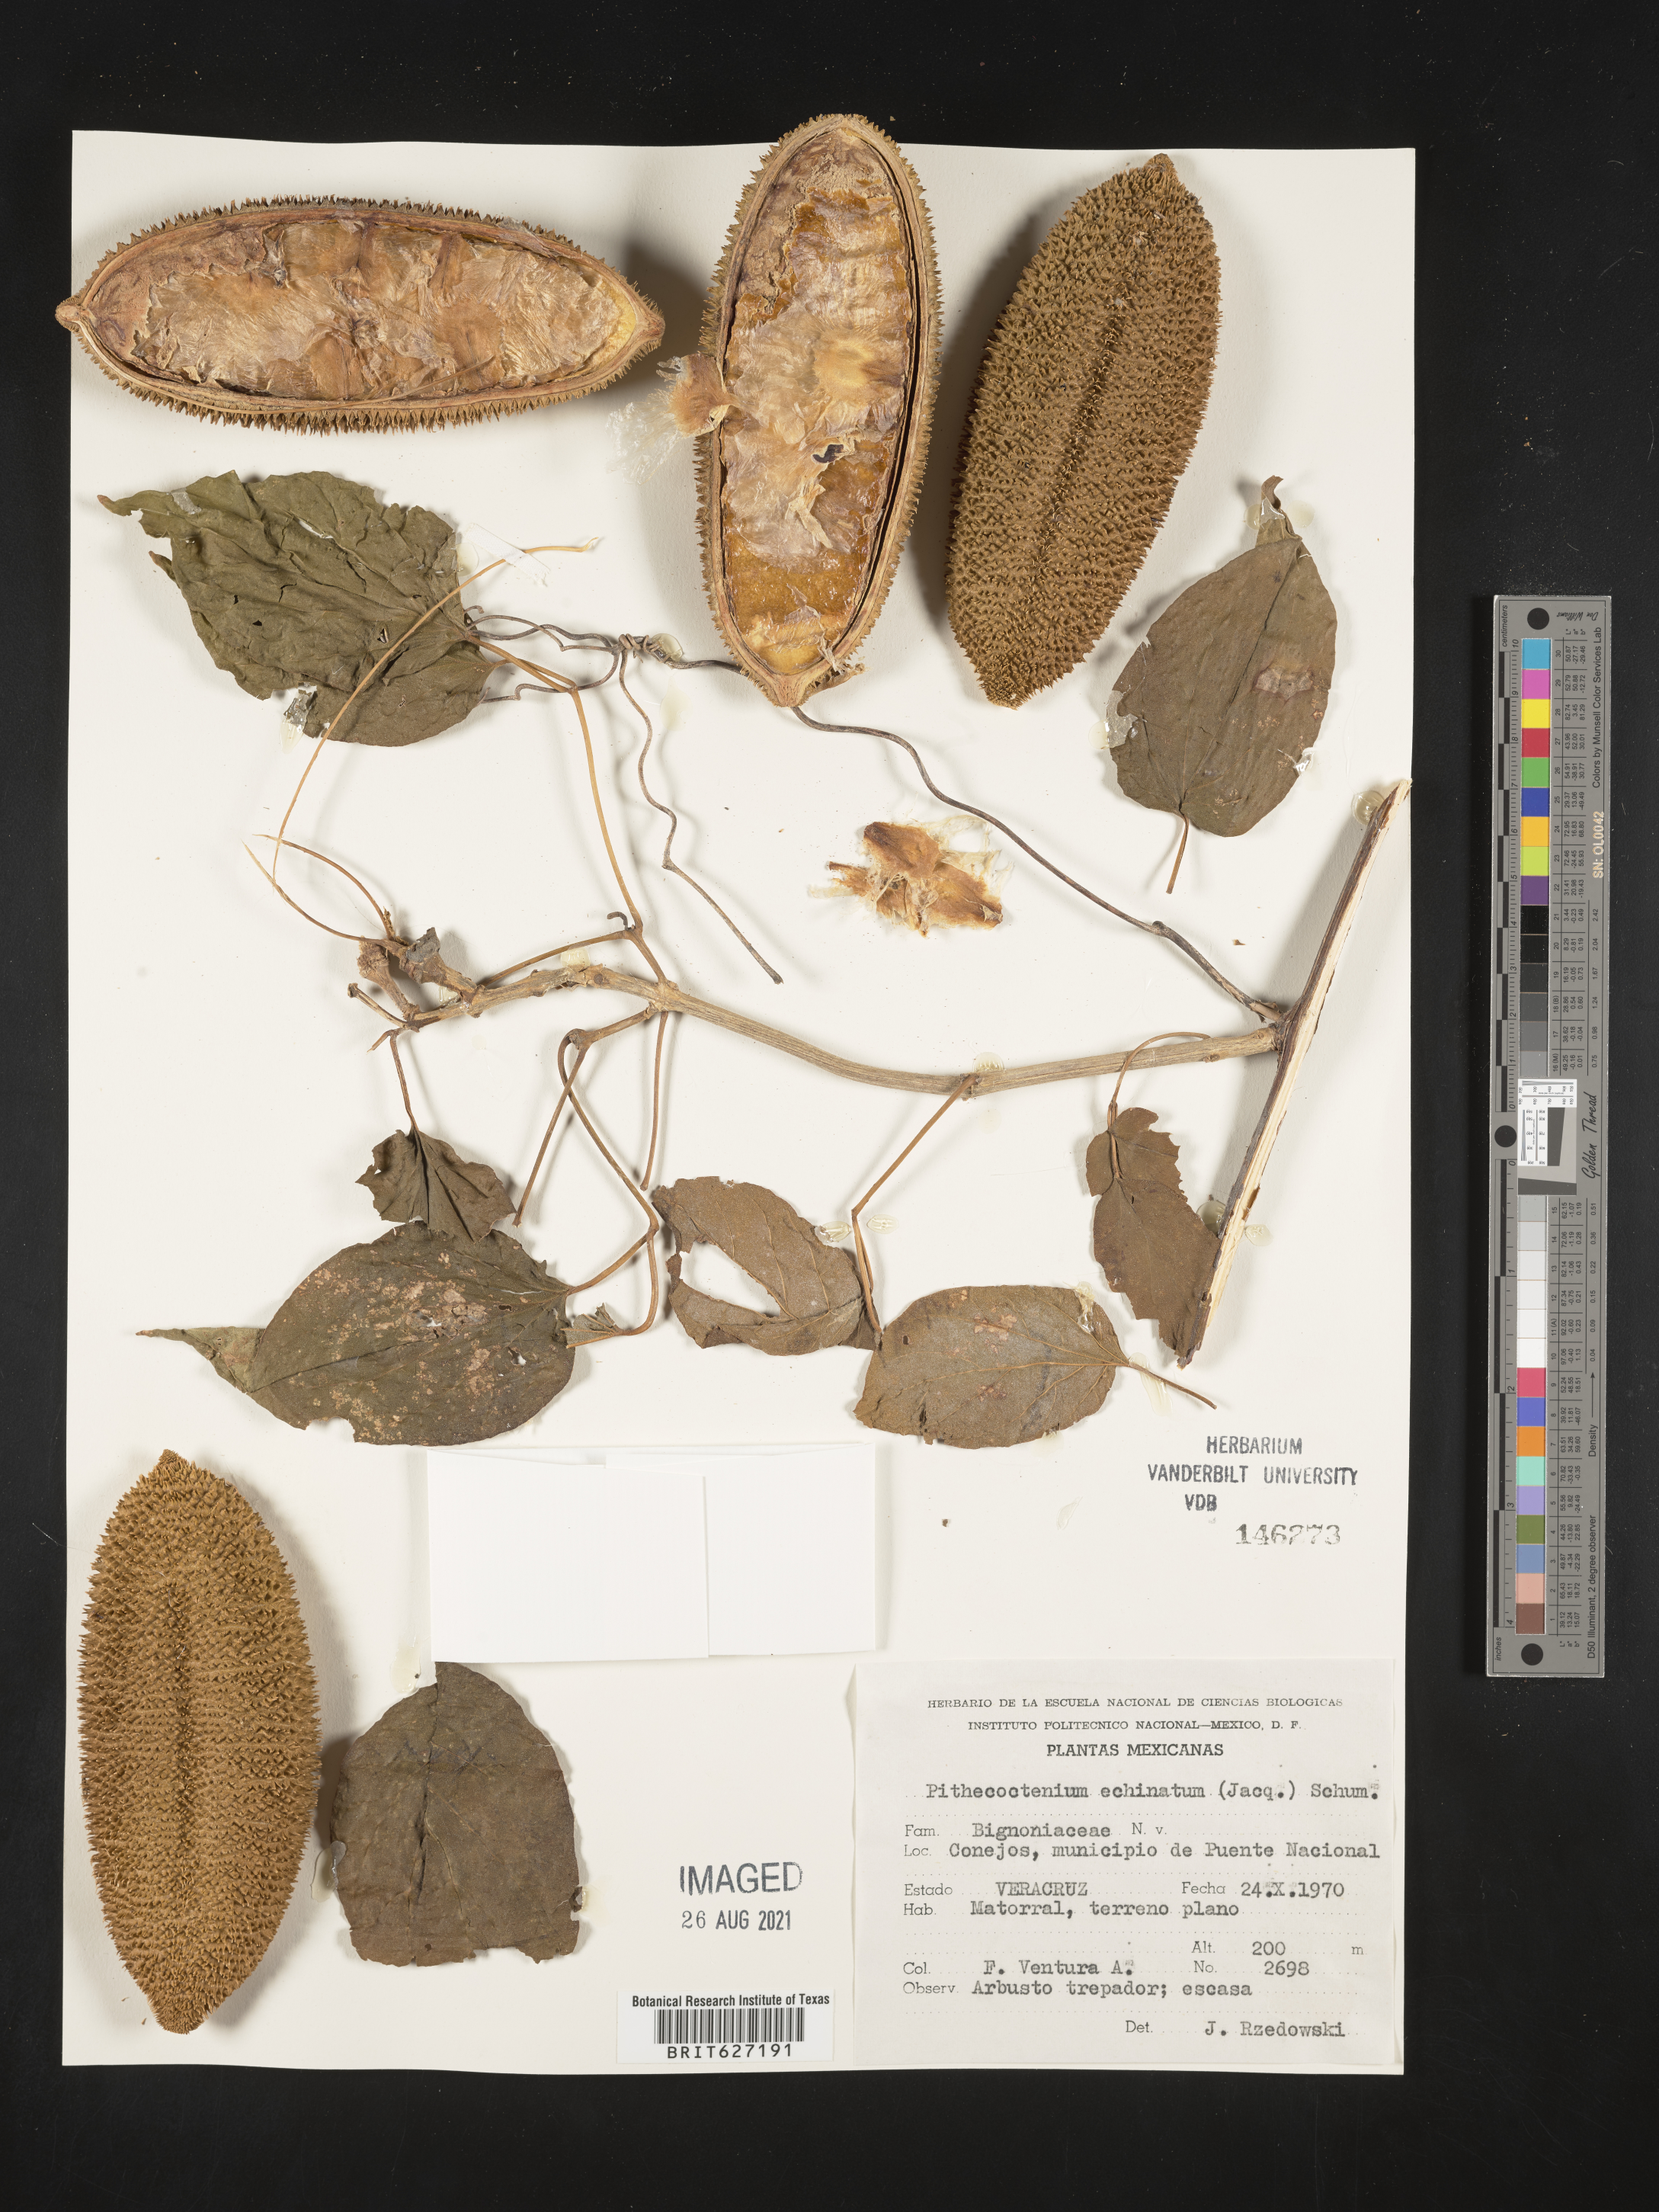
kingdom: Plantae
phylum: Tracheophyta
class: Magnoliopsida
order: Lamiales
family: Bignoniaceae
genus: Pithecoctenium
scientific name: Pithecoctenium
